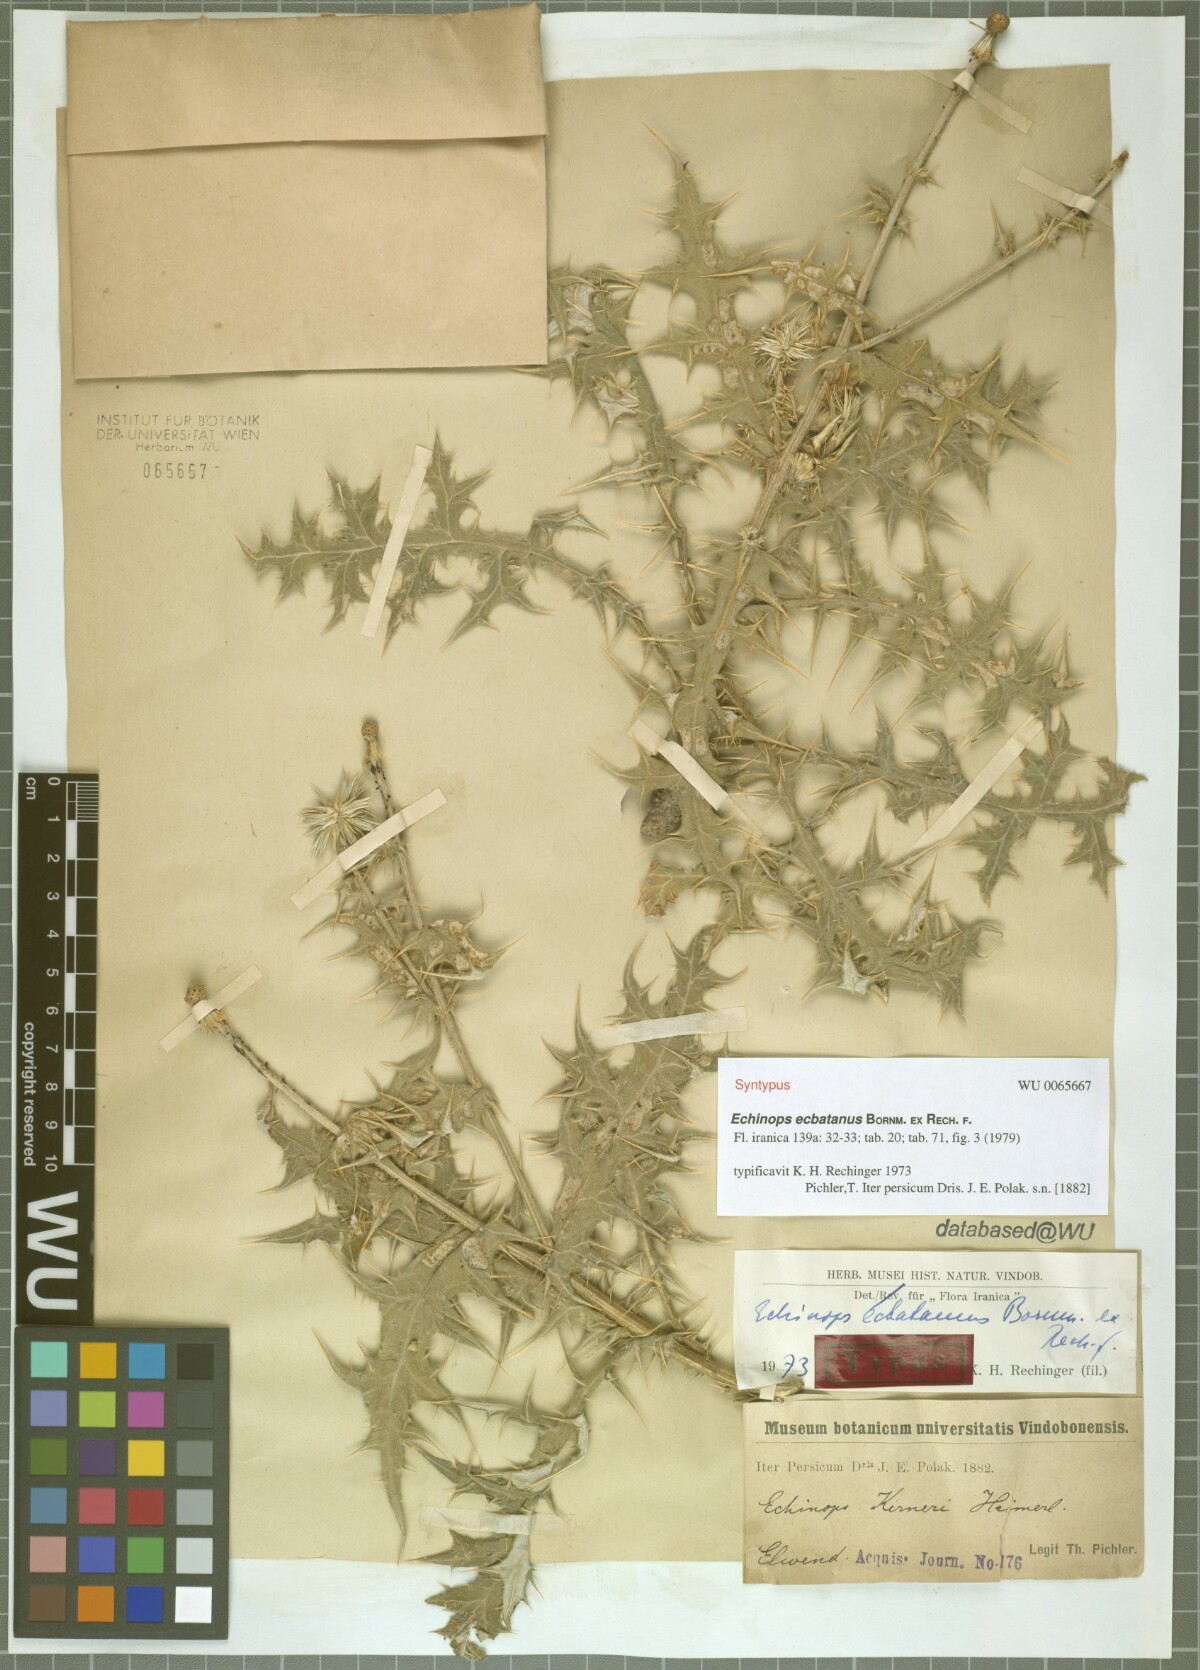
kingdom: Plantae
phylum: Tracheophyta
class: Magnoliopsida
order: Asterales
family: Asteraceae
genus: Echinops
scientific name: Echinops ecbatanus
